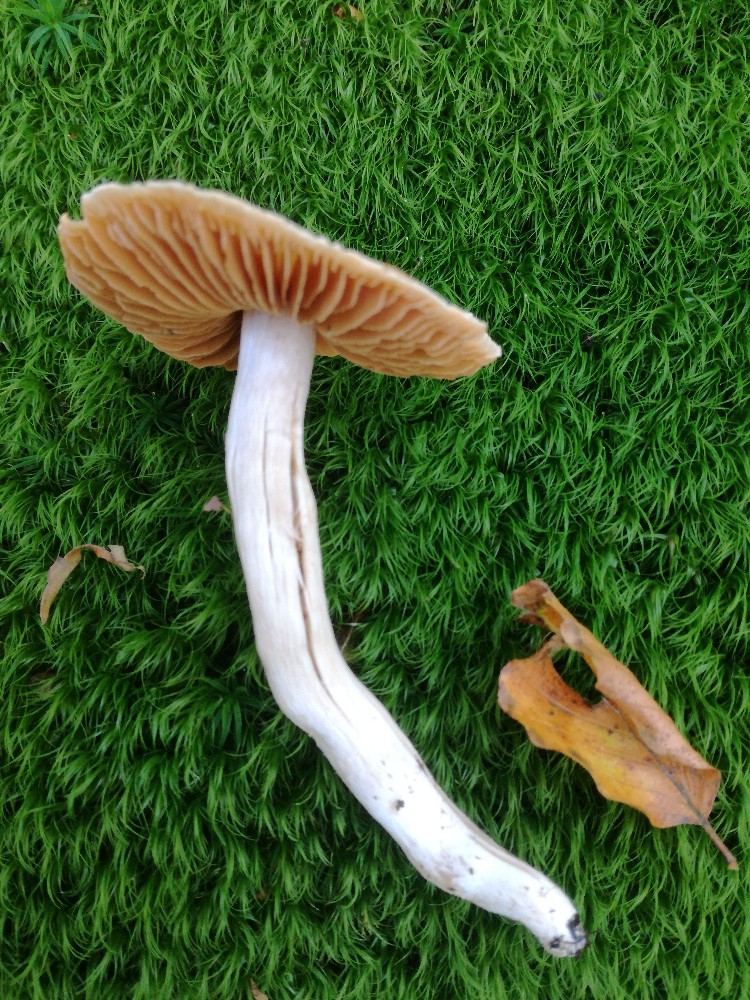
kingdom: Fungi
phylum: Basidiomycota
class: Agaricomycetes
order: Agaricales
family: Cortinariaceae
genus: Cortinarius
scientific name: Cortinarius
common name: jod-slørhat
